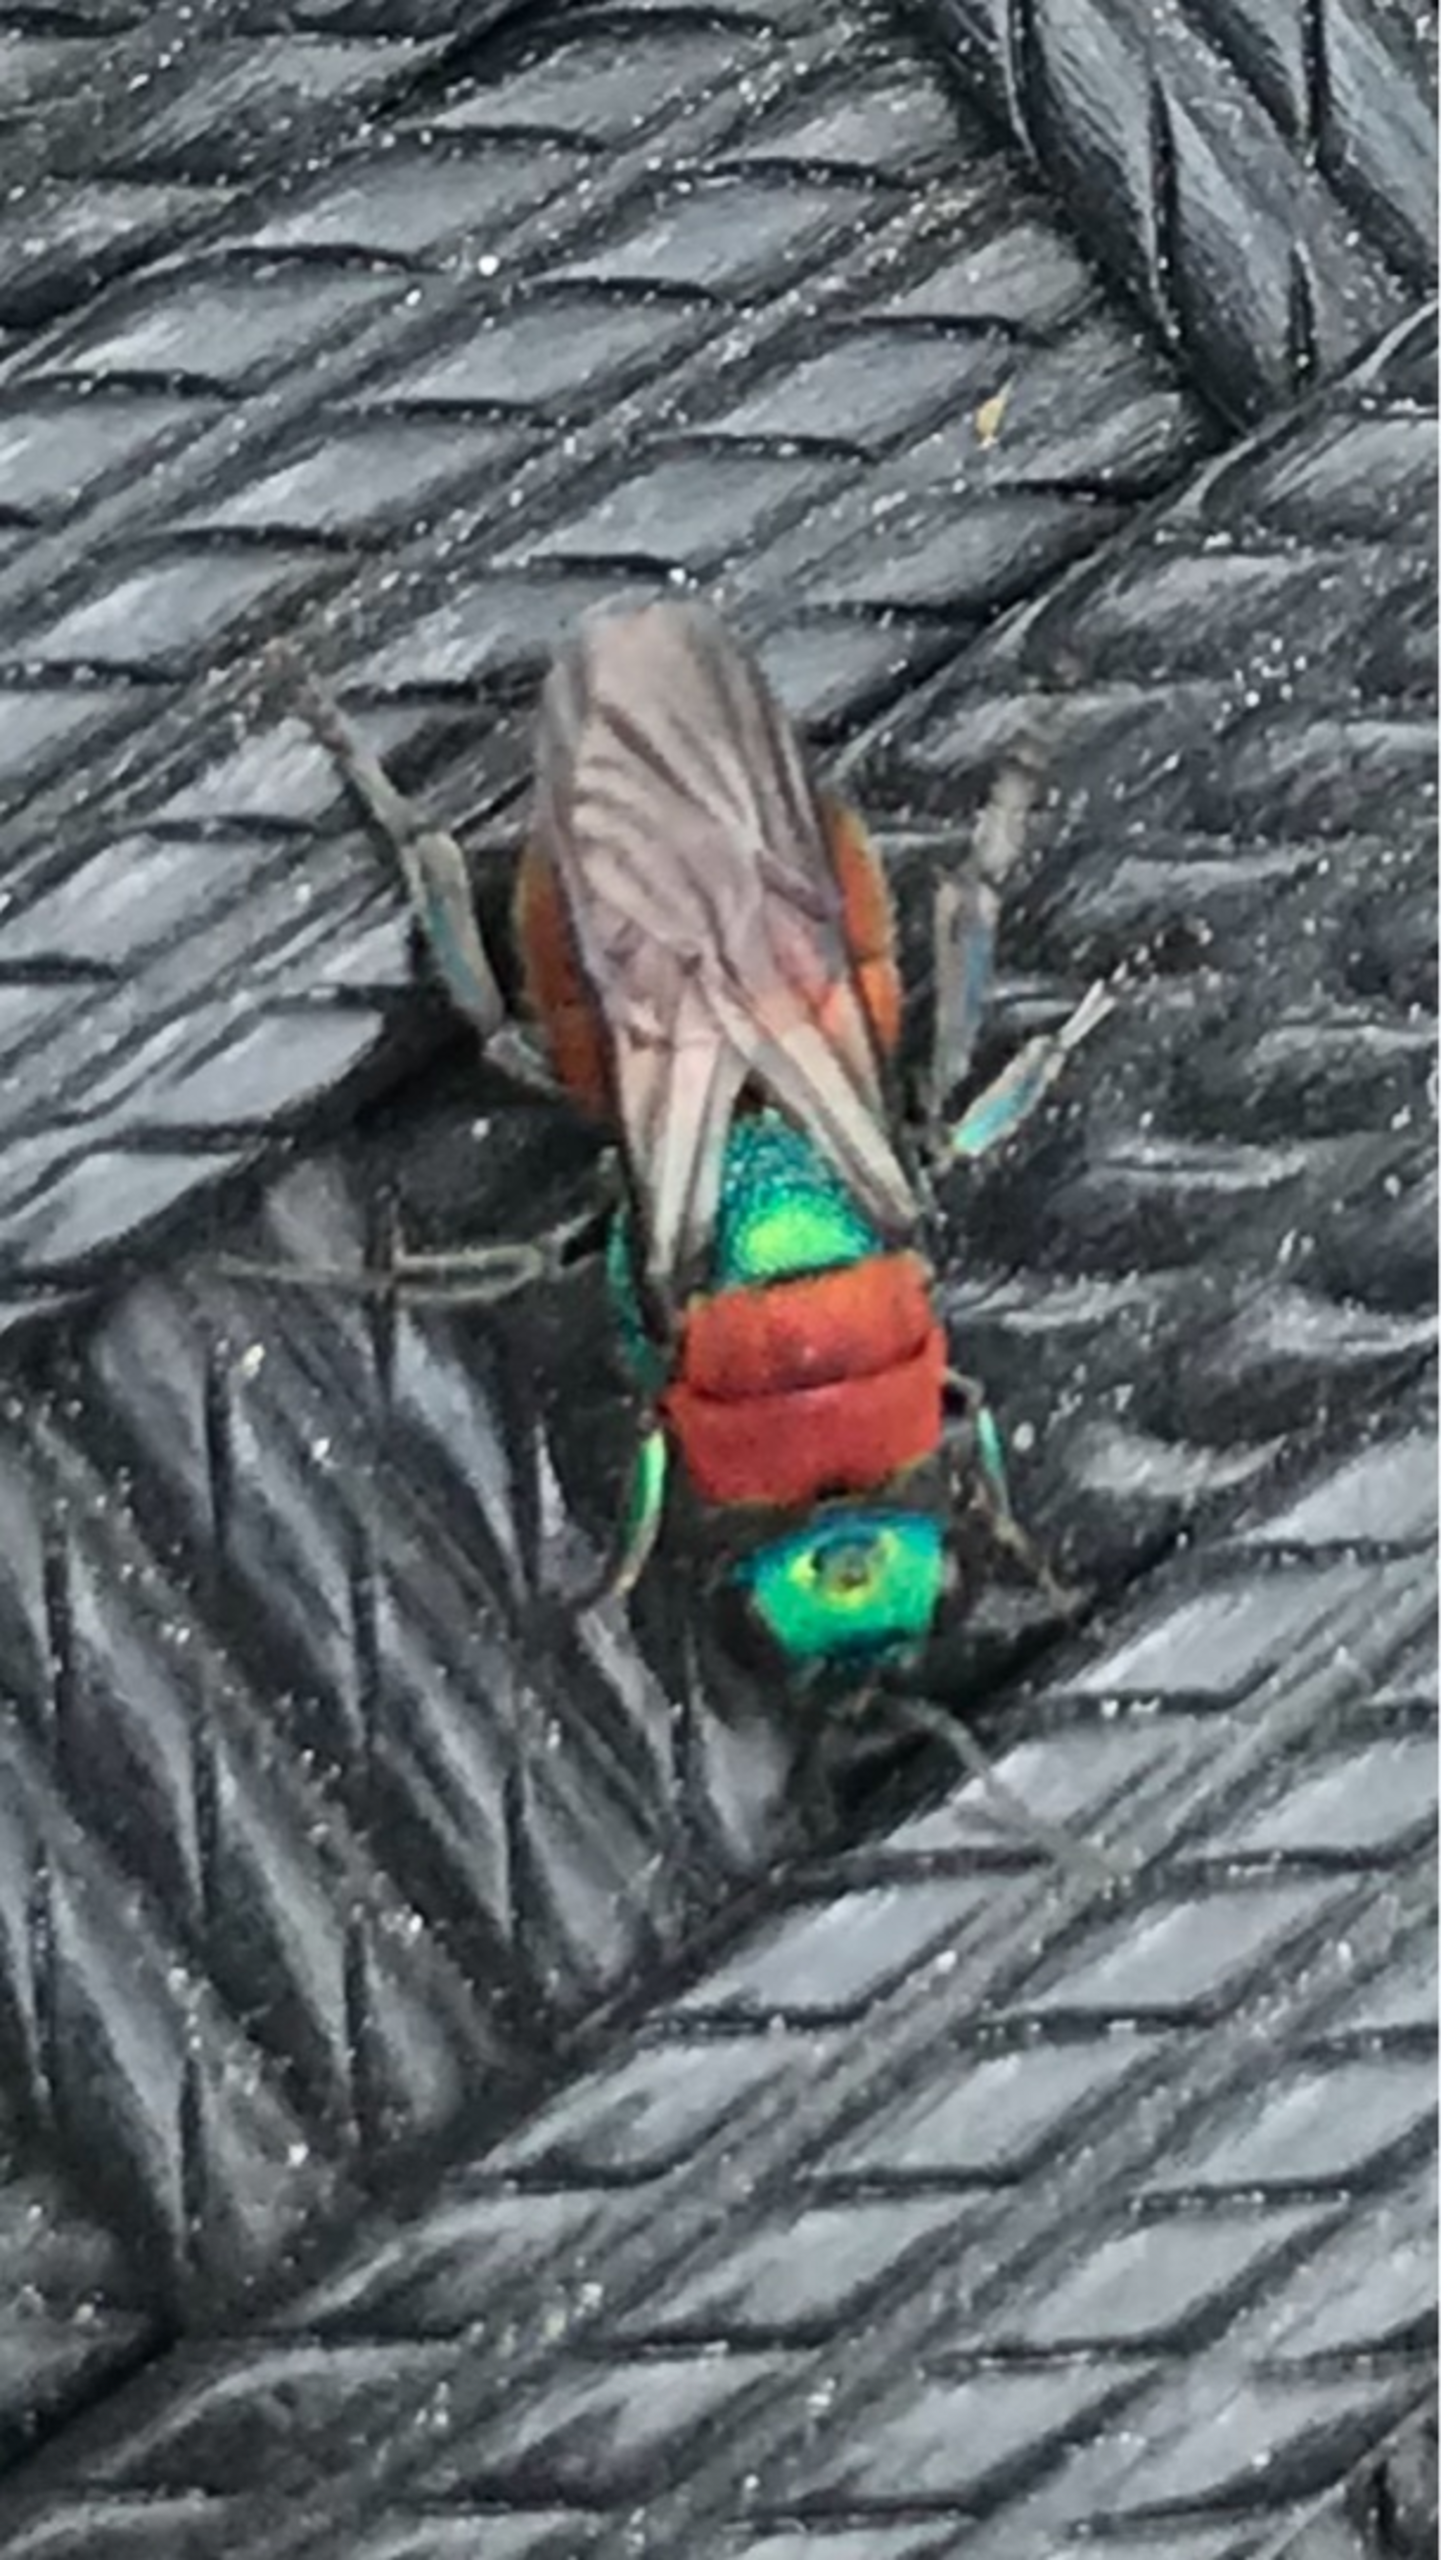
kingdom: Animalia
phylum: Arthropoda
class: Insecta
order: Hymenoptera
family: Chrysididae
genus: Hedychrum
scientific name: Hedychrum
